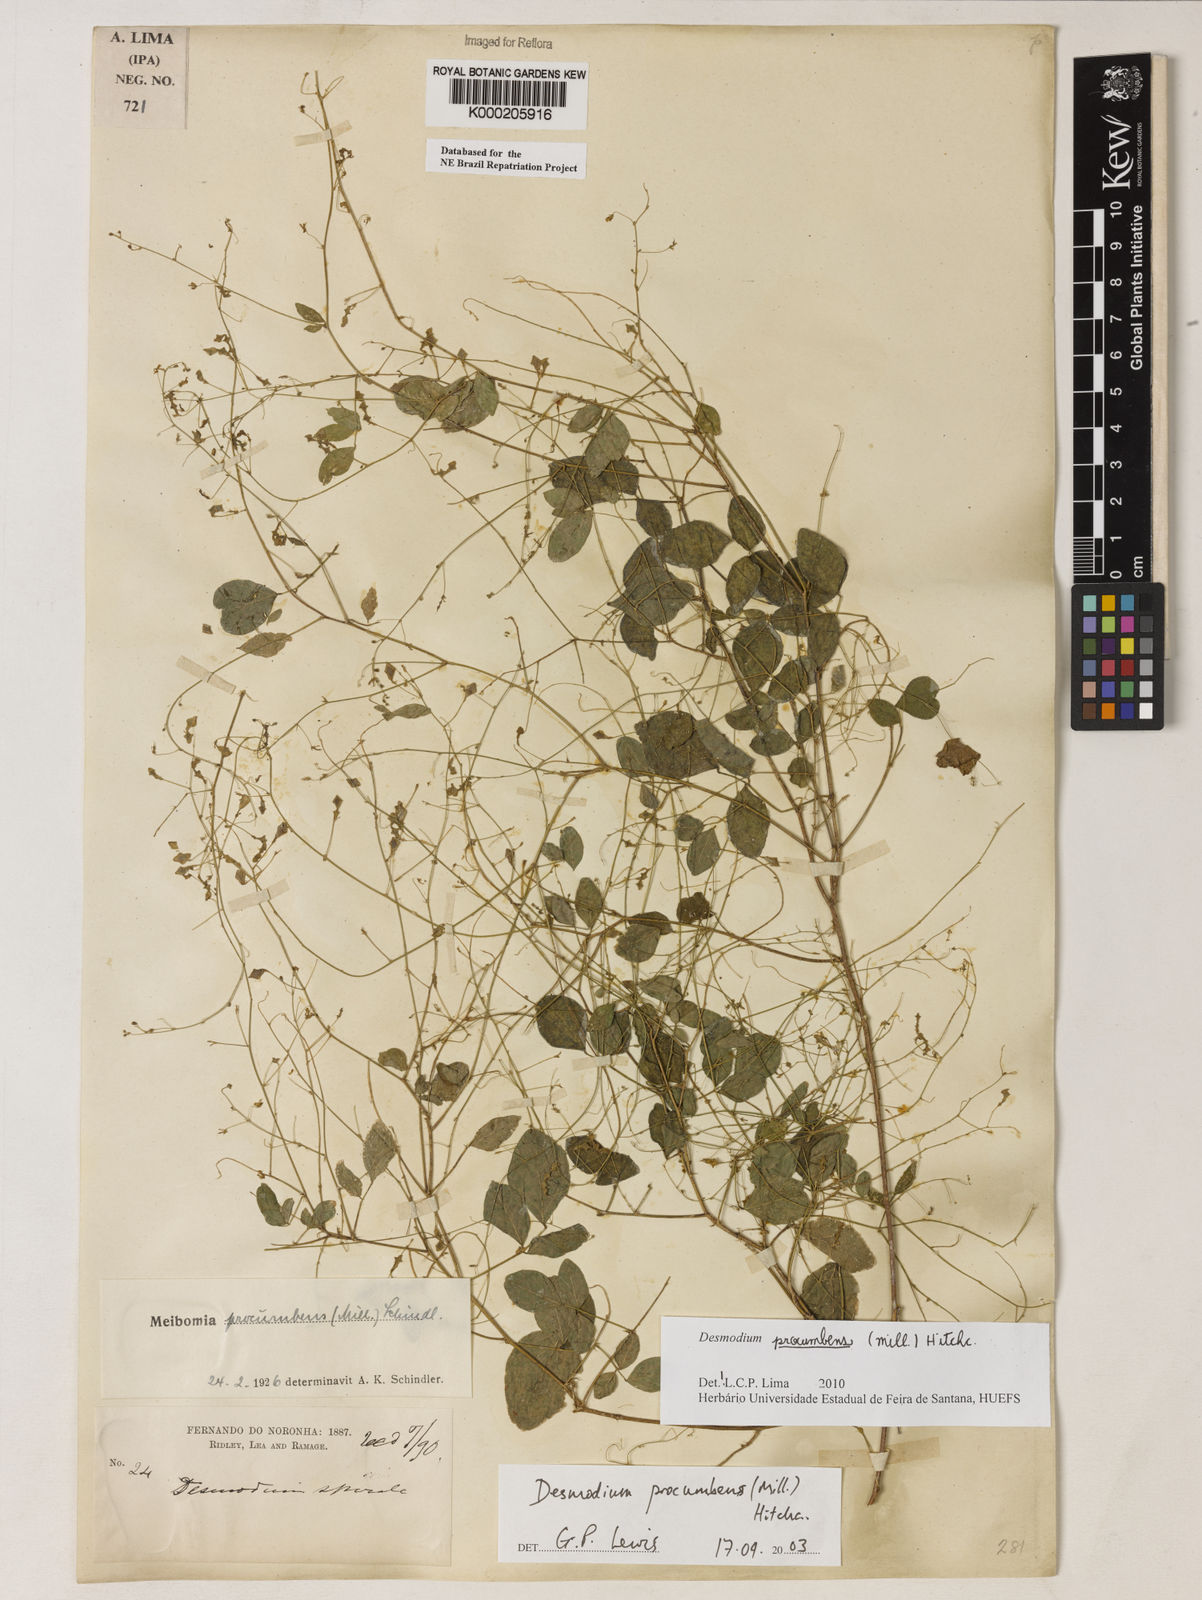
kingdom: Plantae
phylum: Tracheophyta
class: Magnoliopsida
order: Fabales
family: Fabaceae
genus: Desmodium
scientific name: Desmodium procumbens
